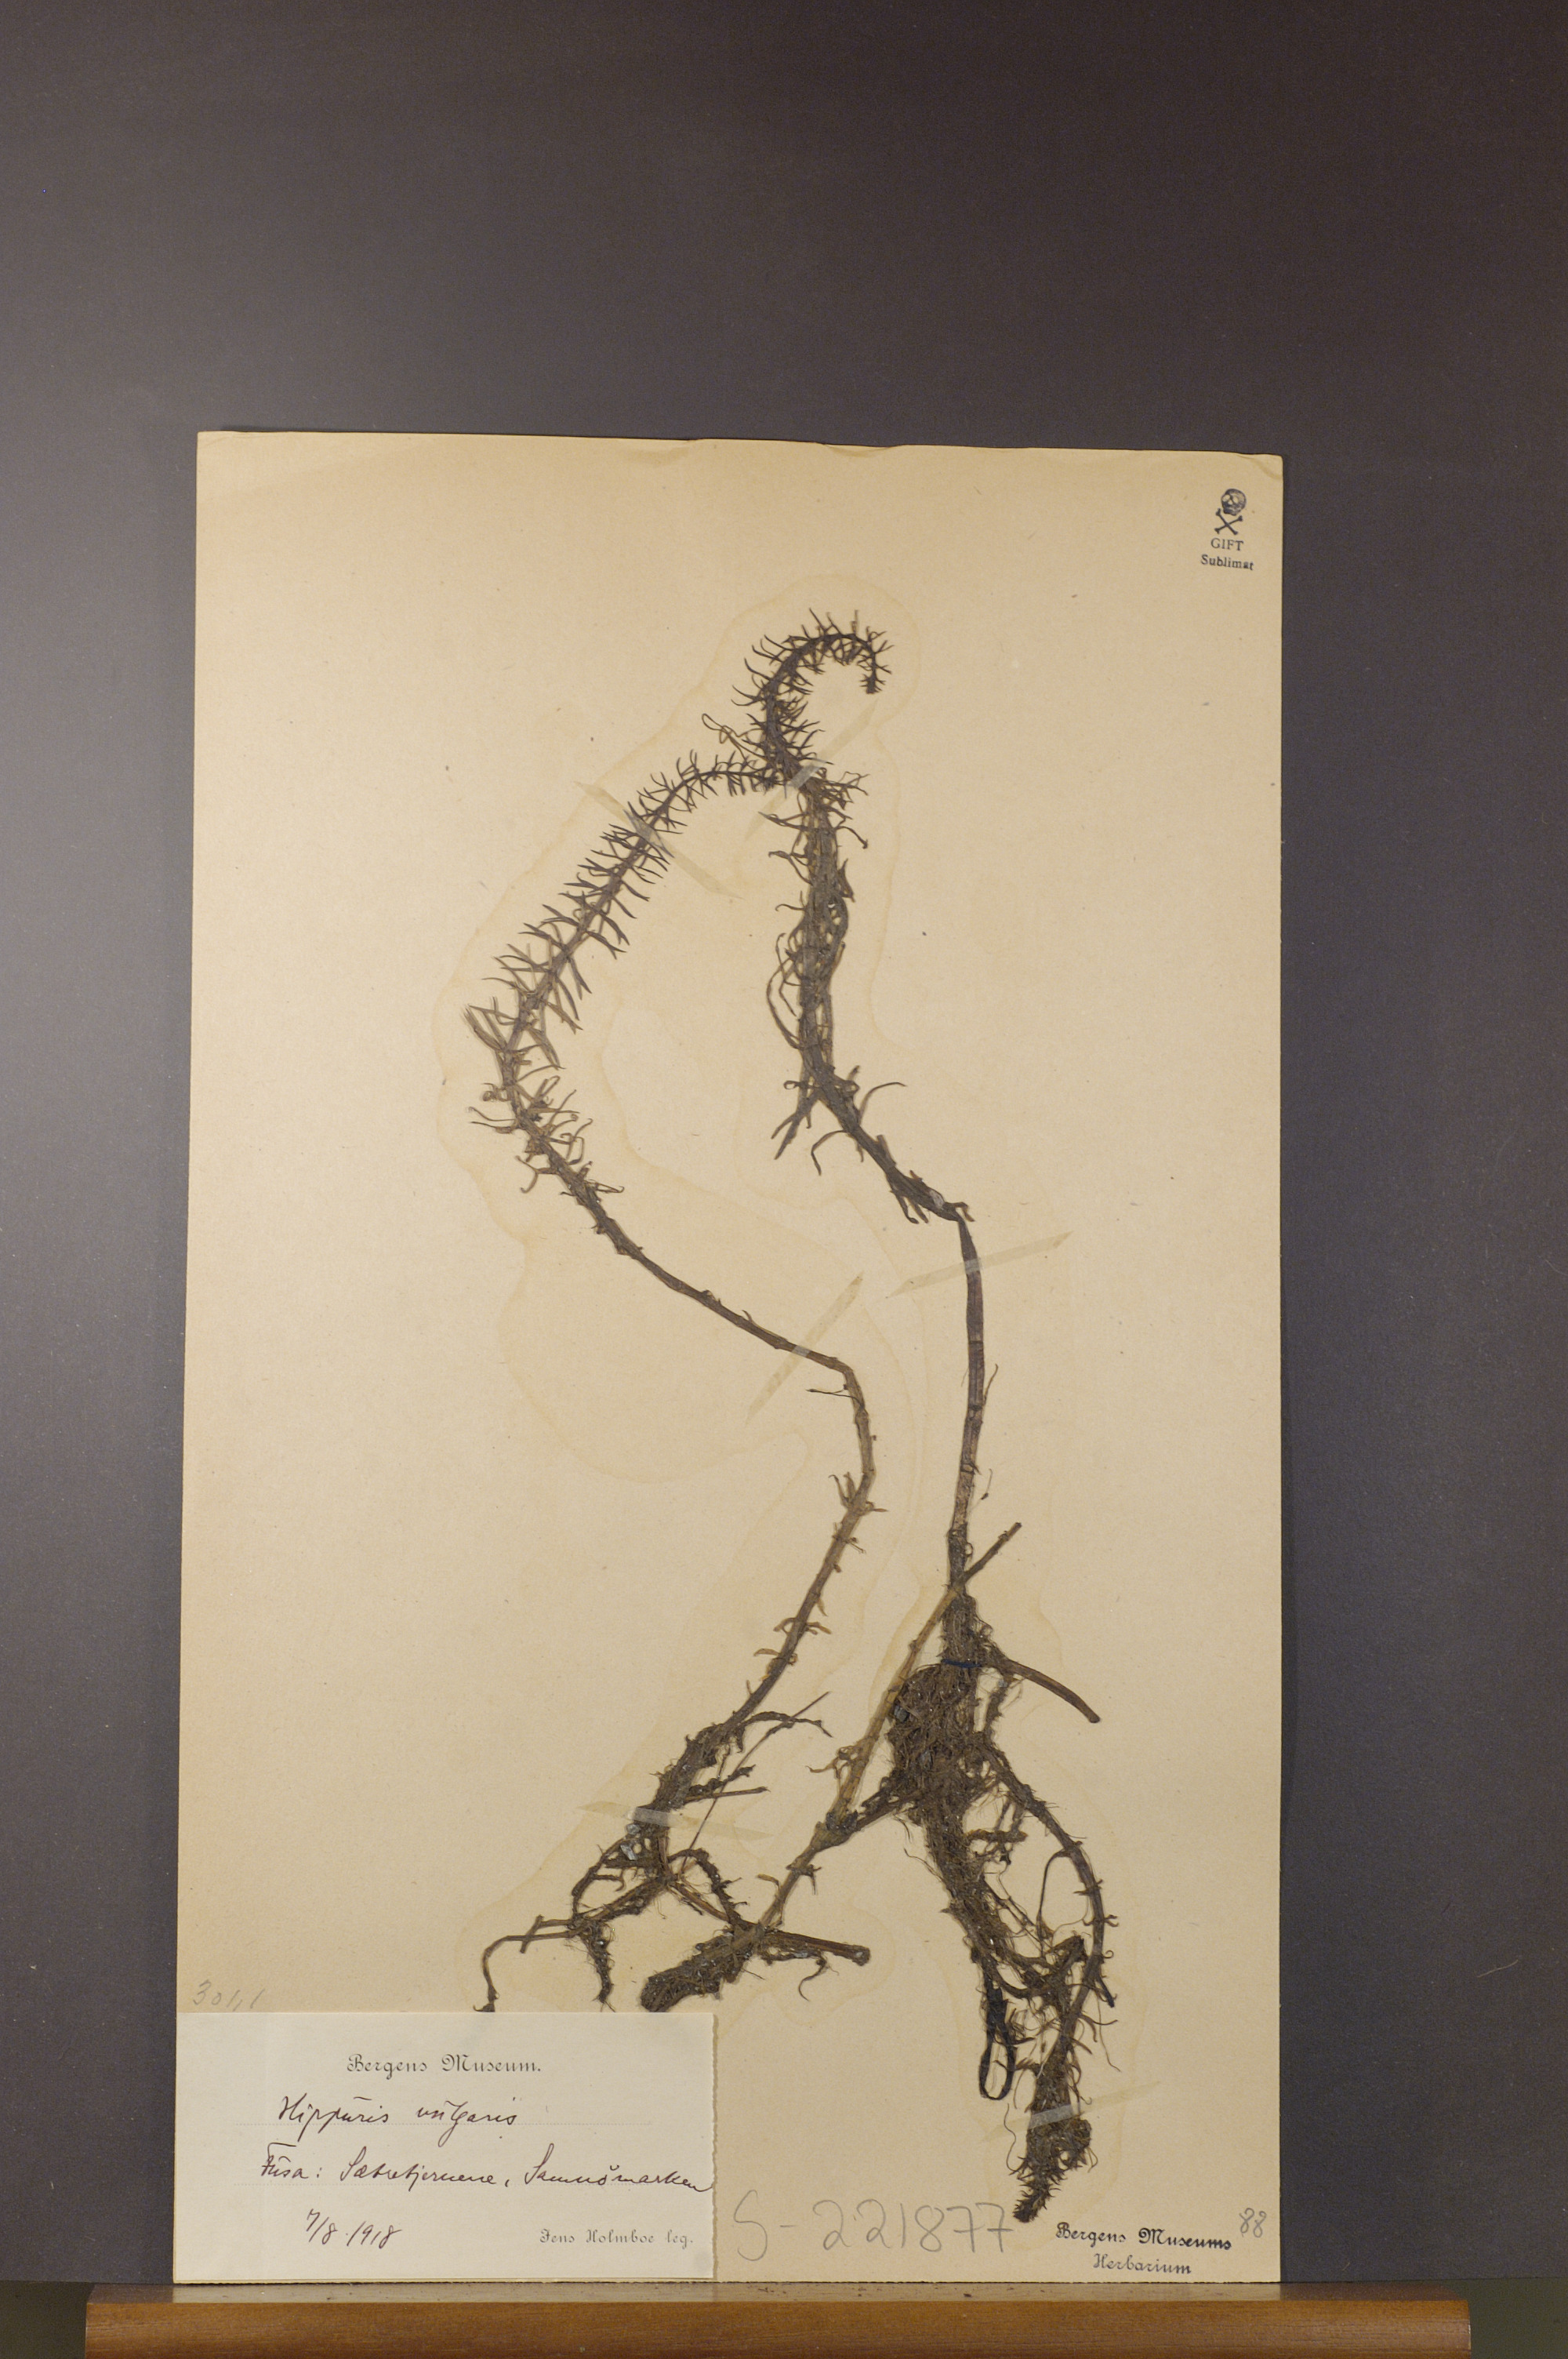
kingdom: Plantae
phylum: Tracheophyta
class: Magnoliopsida
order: Lamiales
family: Plantaginaceae
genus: Hippuris
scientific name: Hippuris vulgaris
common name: Mare's-tail
